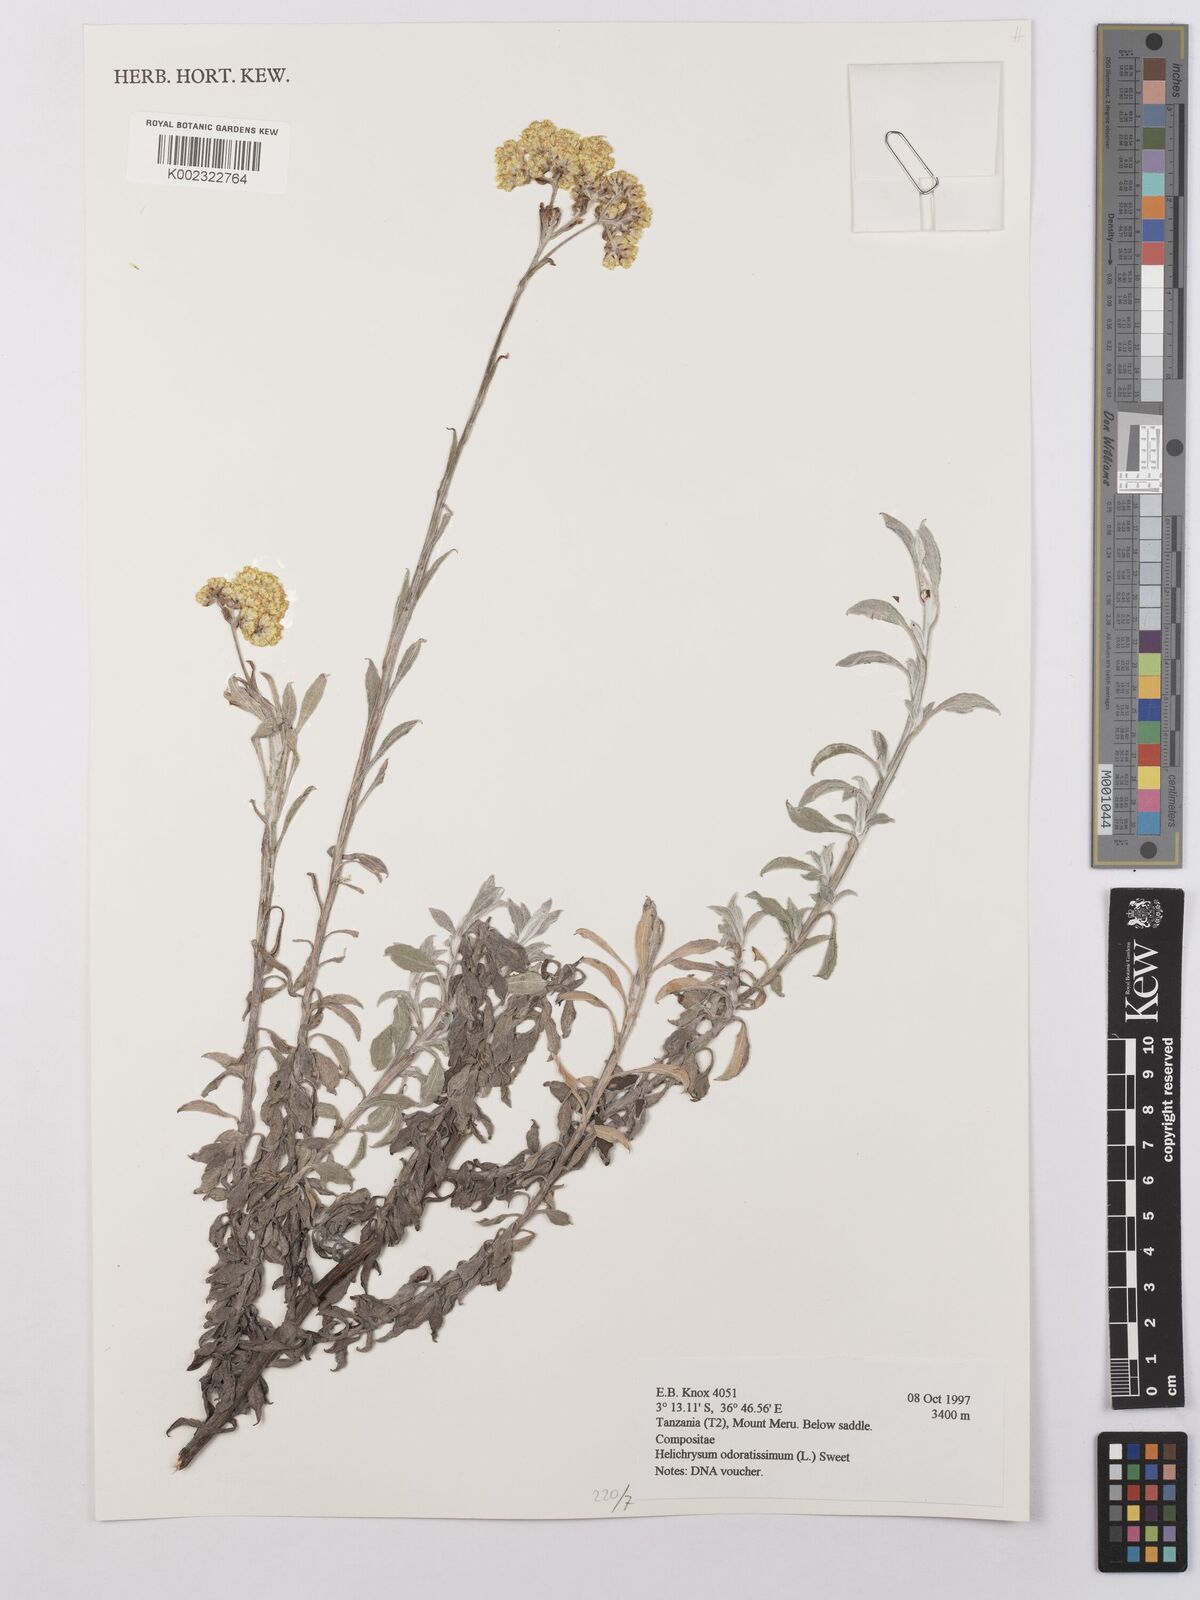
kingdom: Plantae
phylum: Tracheophyta
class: Magnoliopsida
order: Asterales
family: Asteraceae
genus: Helichrysum
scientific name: Helichrysum odoratissimum
